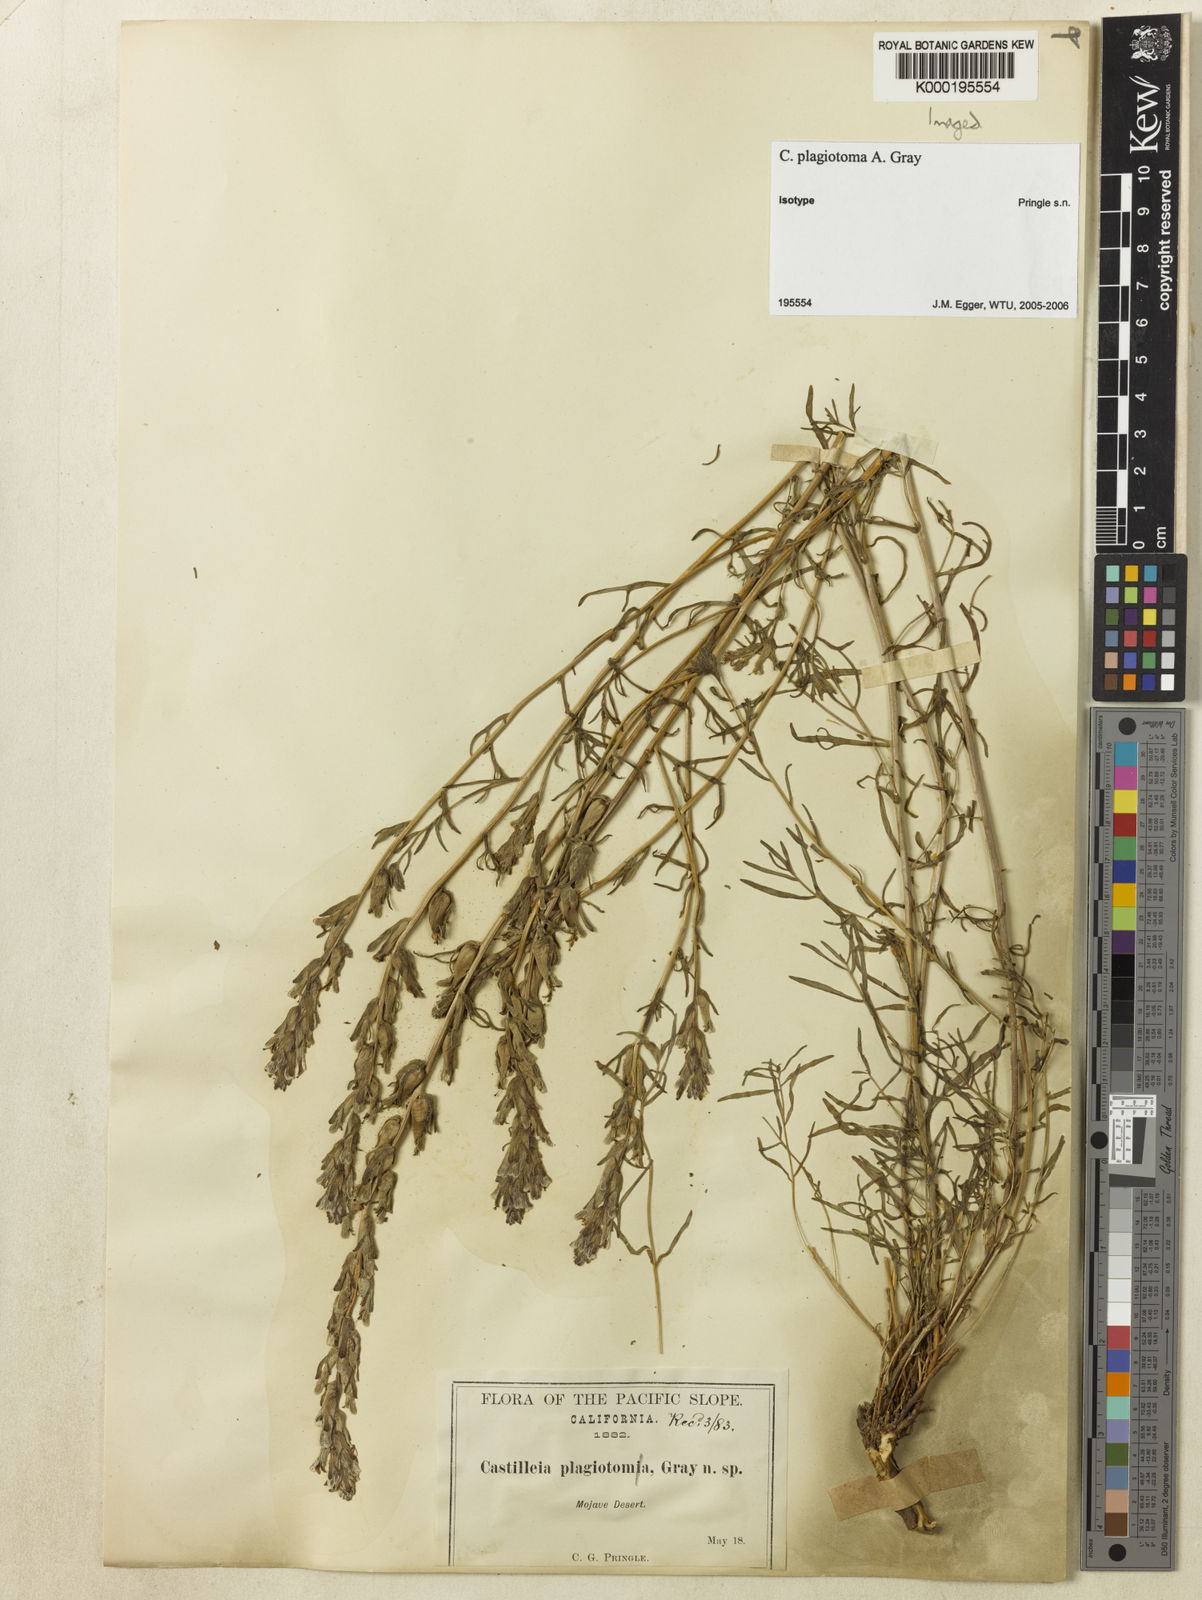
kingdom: Plantae
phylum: Tracheophyta
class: Magnoliopsida
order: Lamiales
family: Orobanchaceae
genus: Castilleja
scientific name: Castilleja plagiotoma
